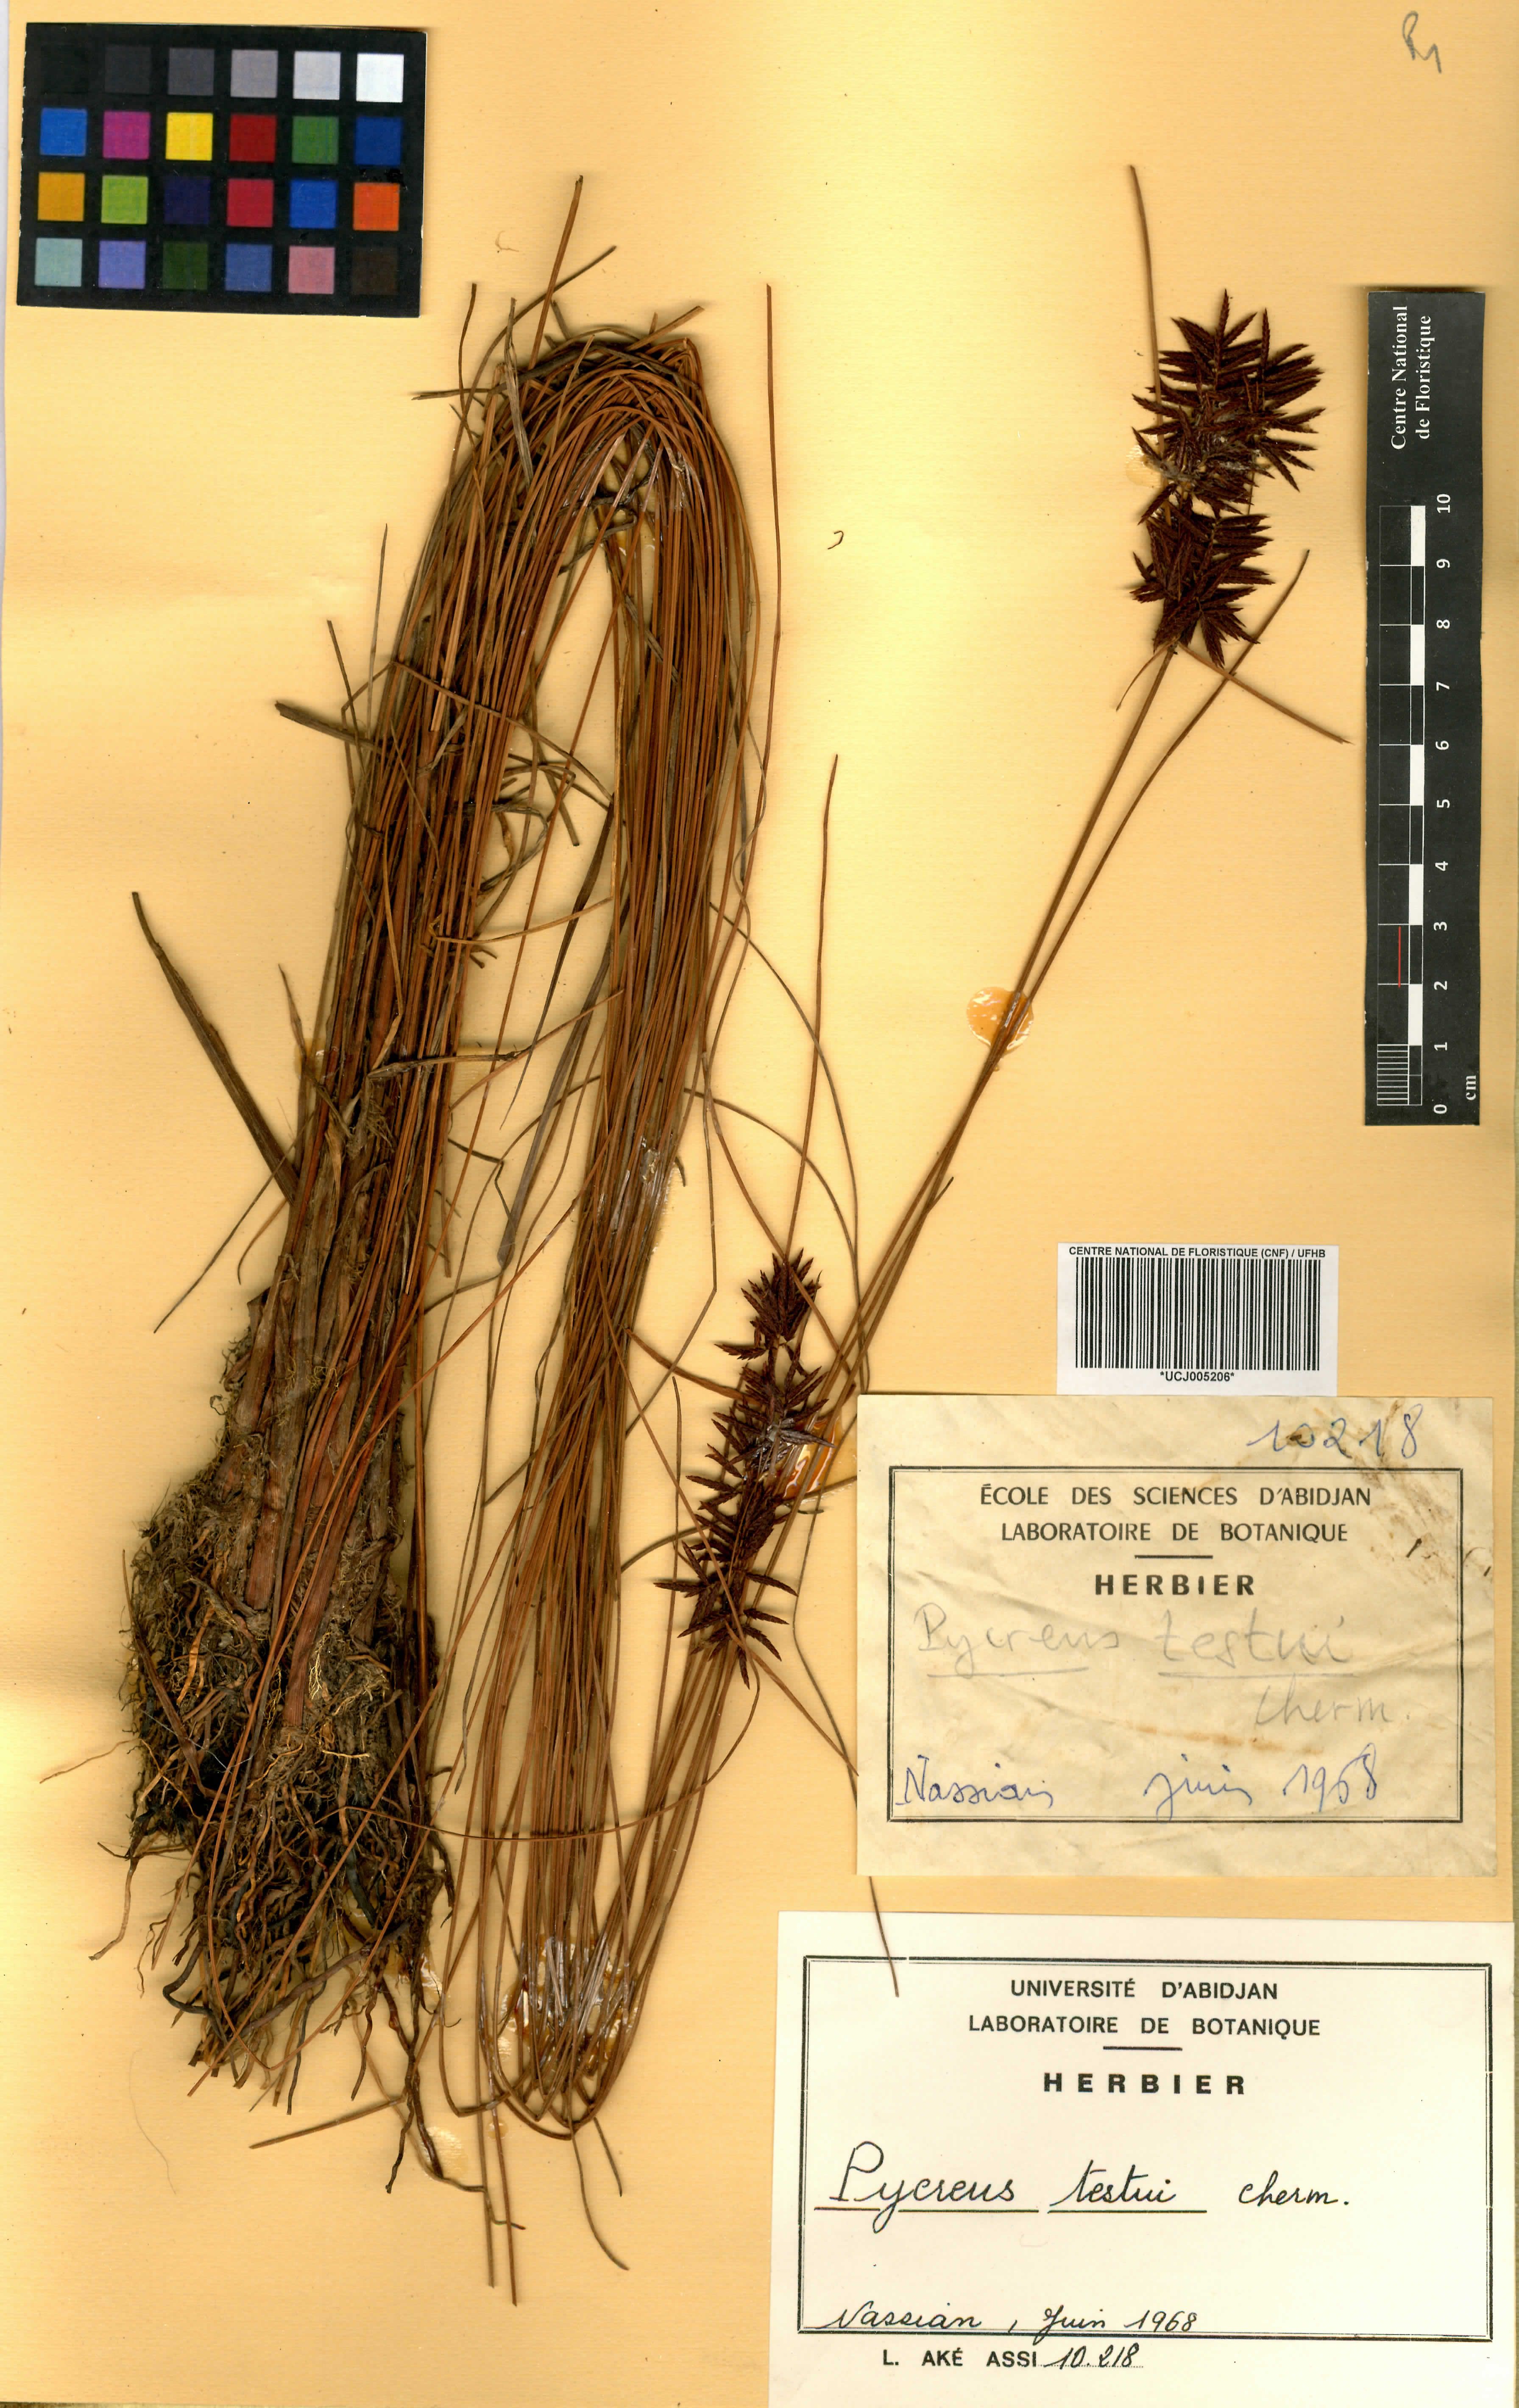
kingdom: Plantae
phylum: Tracheophyta
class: Liliopsida
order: Poales
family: Cyperaceae
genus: Cyperus
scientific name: Cyperus testui
